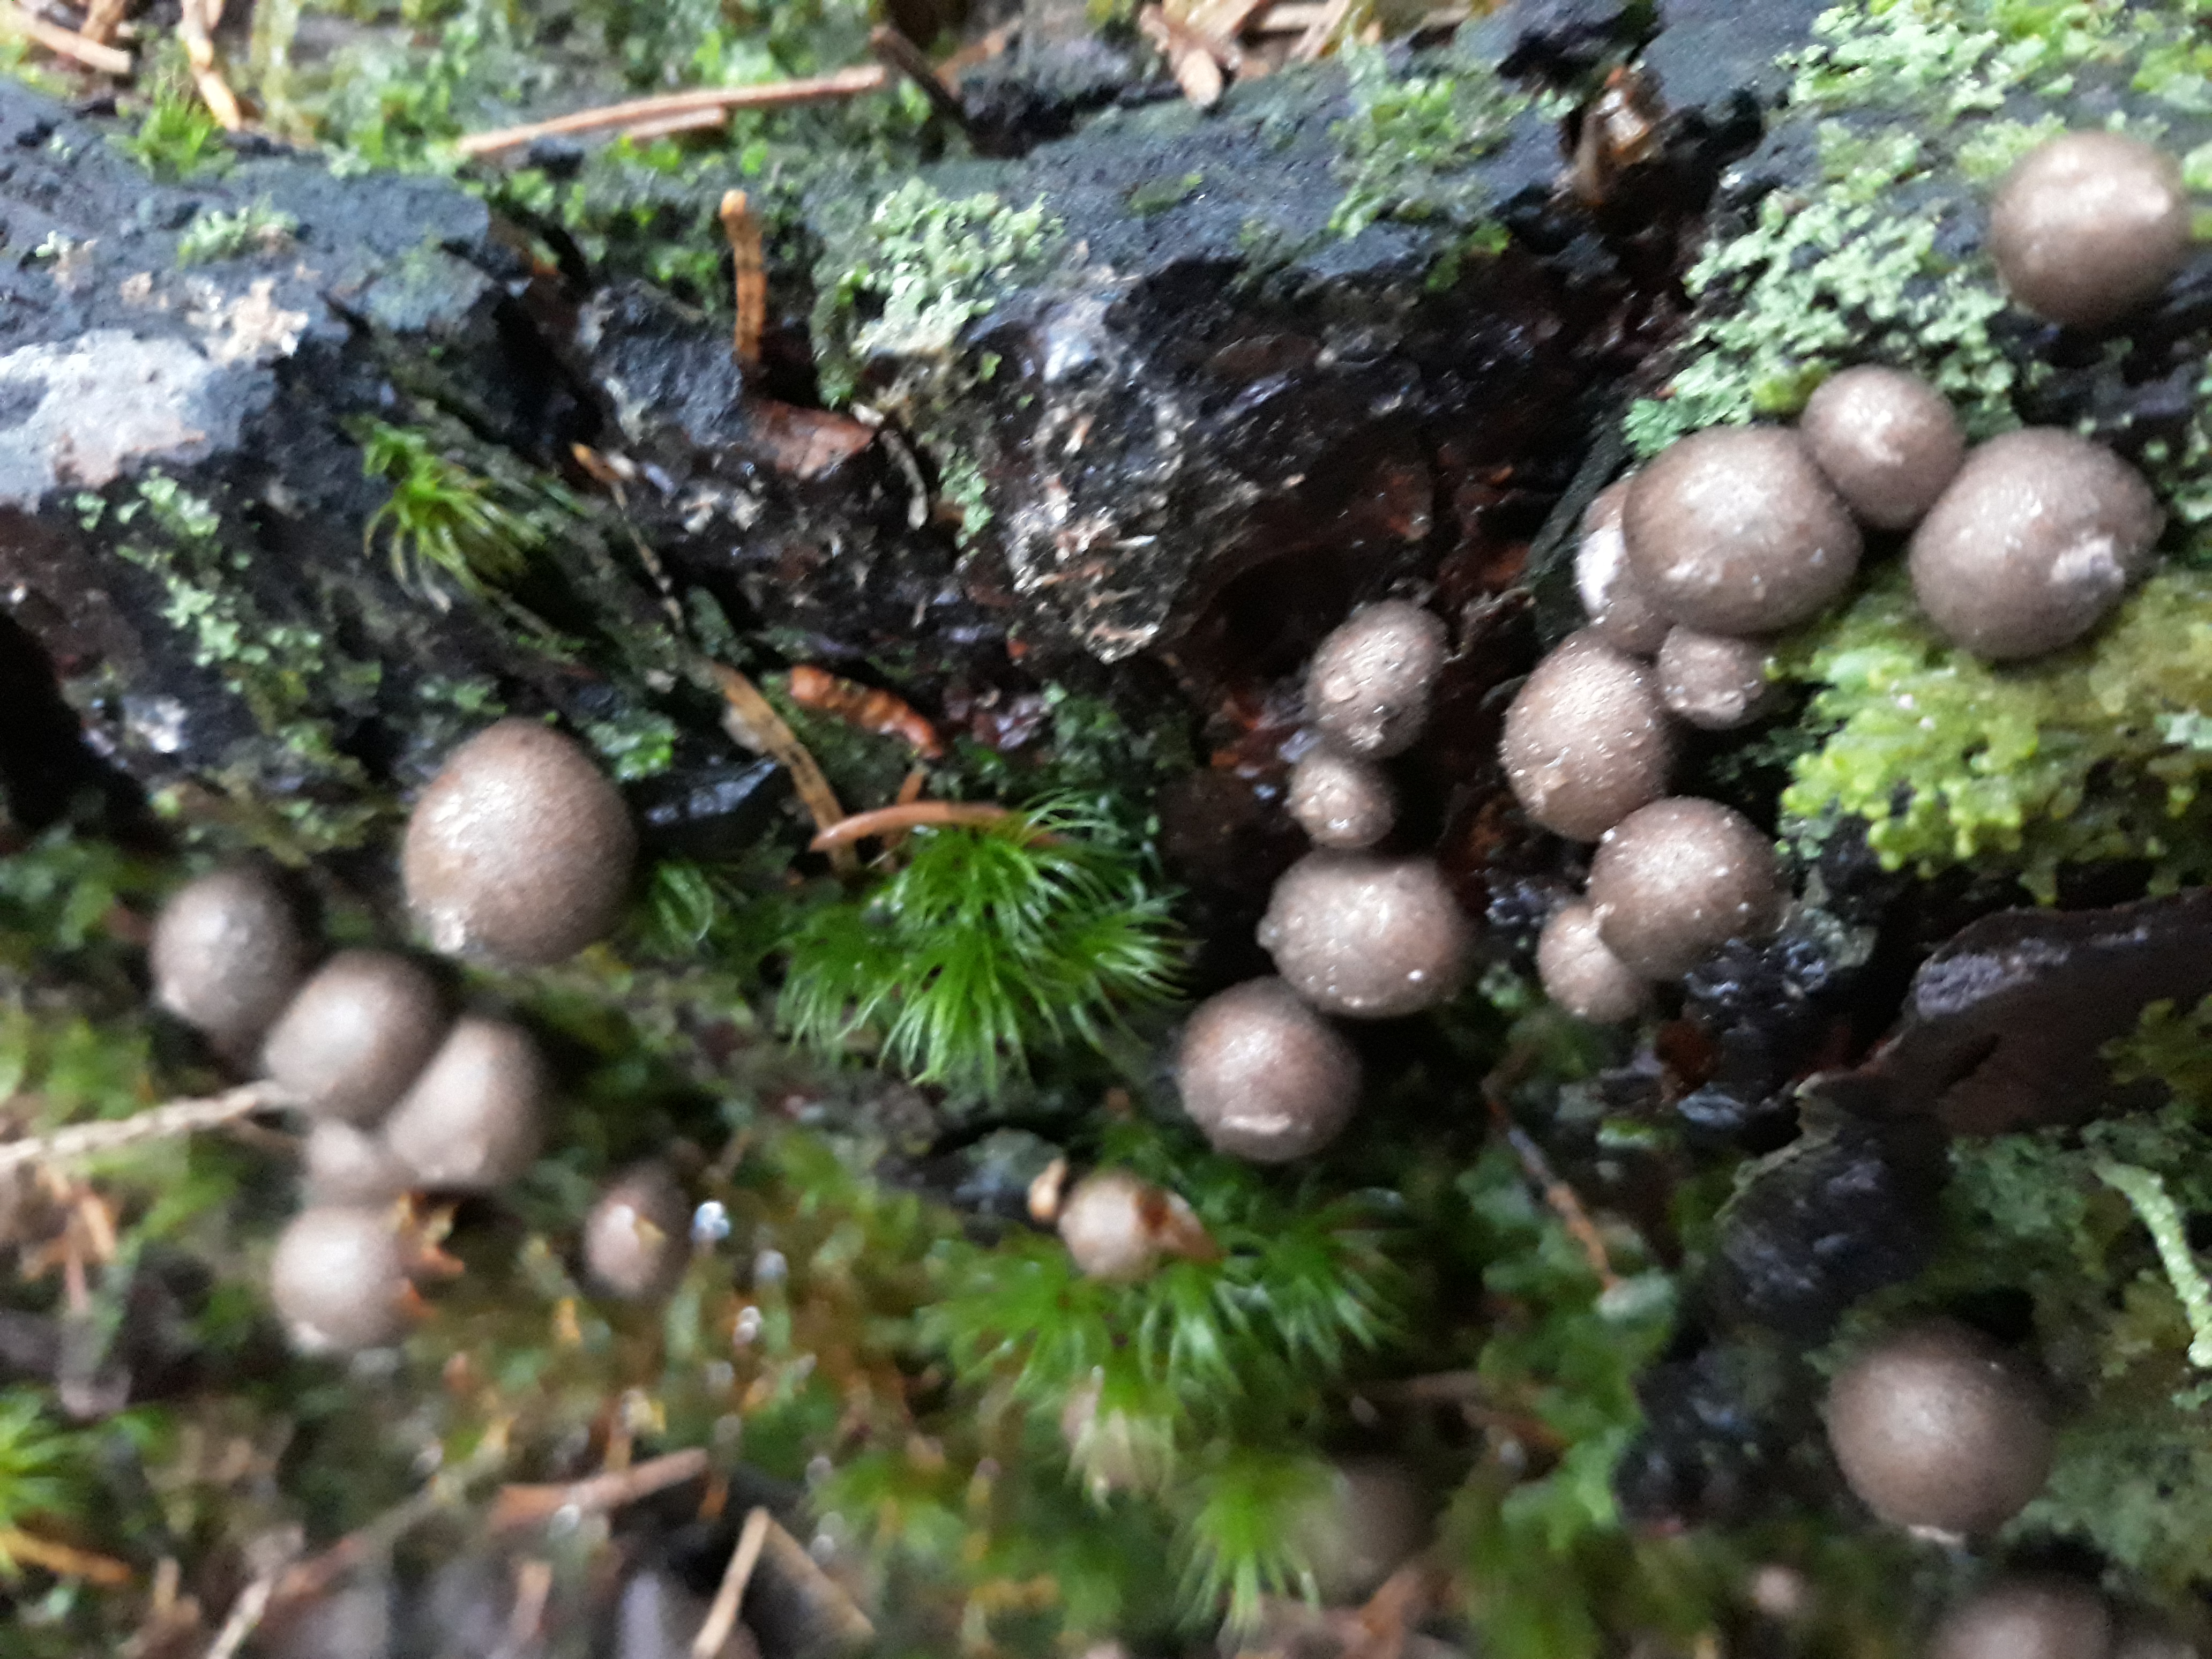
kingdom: Protozoa
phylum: Mycetozoa
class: Myxomycetes
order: Cribrariales
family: Tubiferaceae
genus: Lycogala
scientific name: Lycogala epidendrum
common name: Wolf's milk
